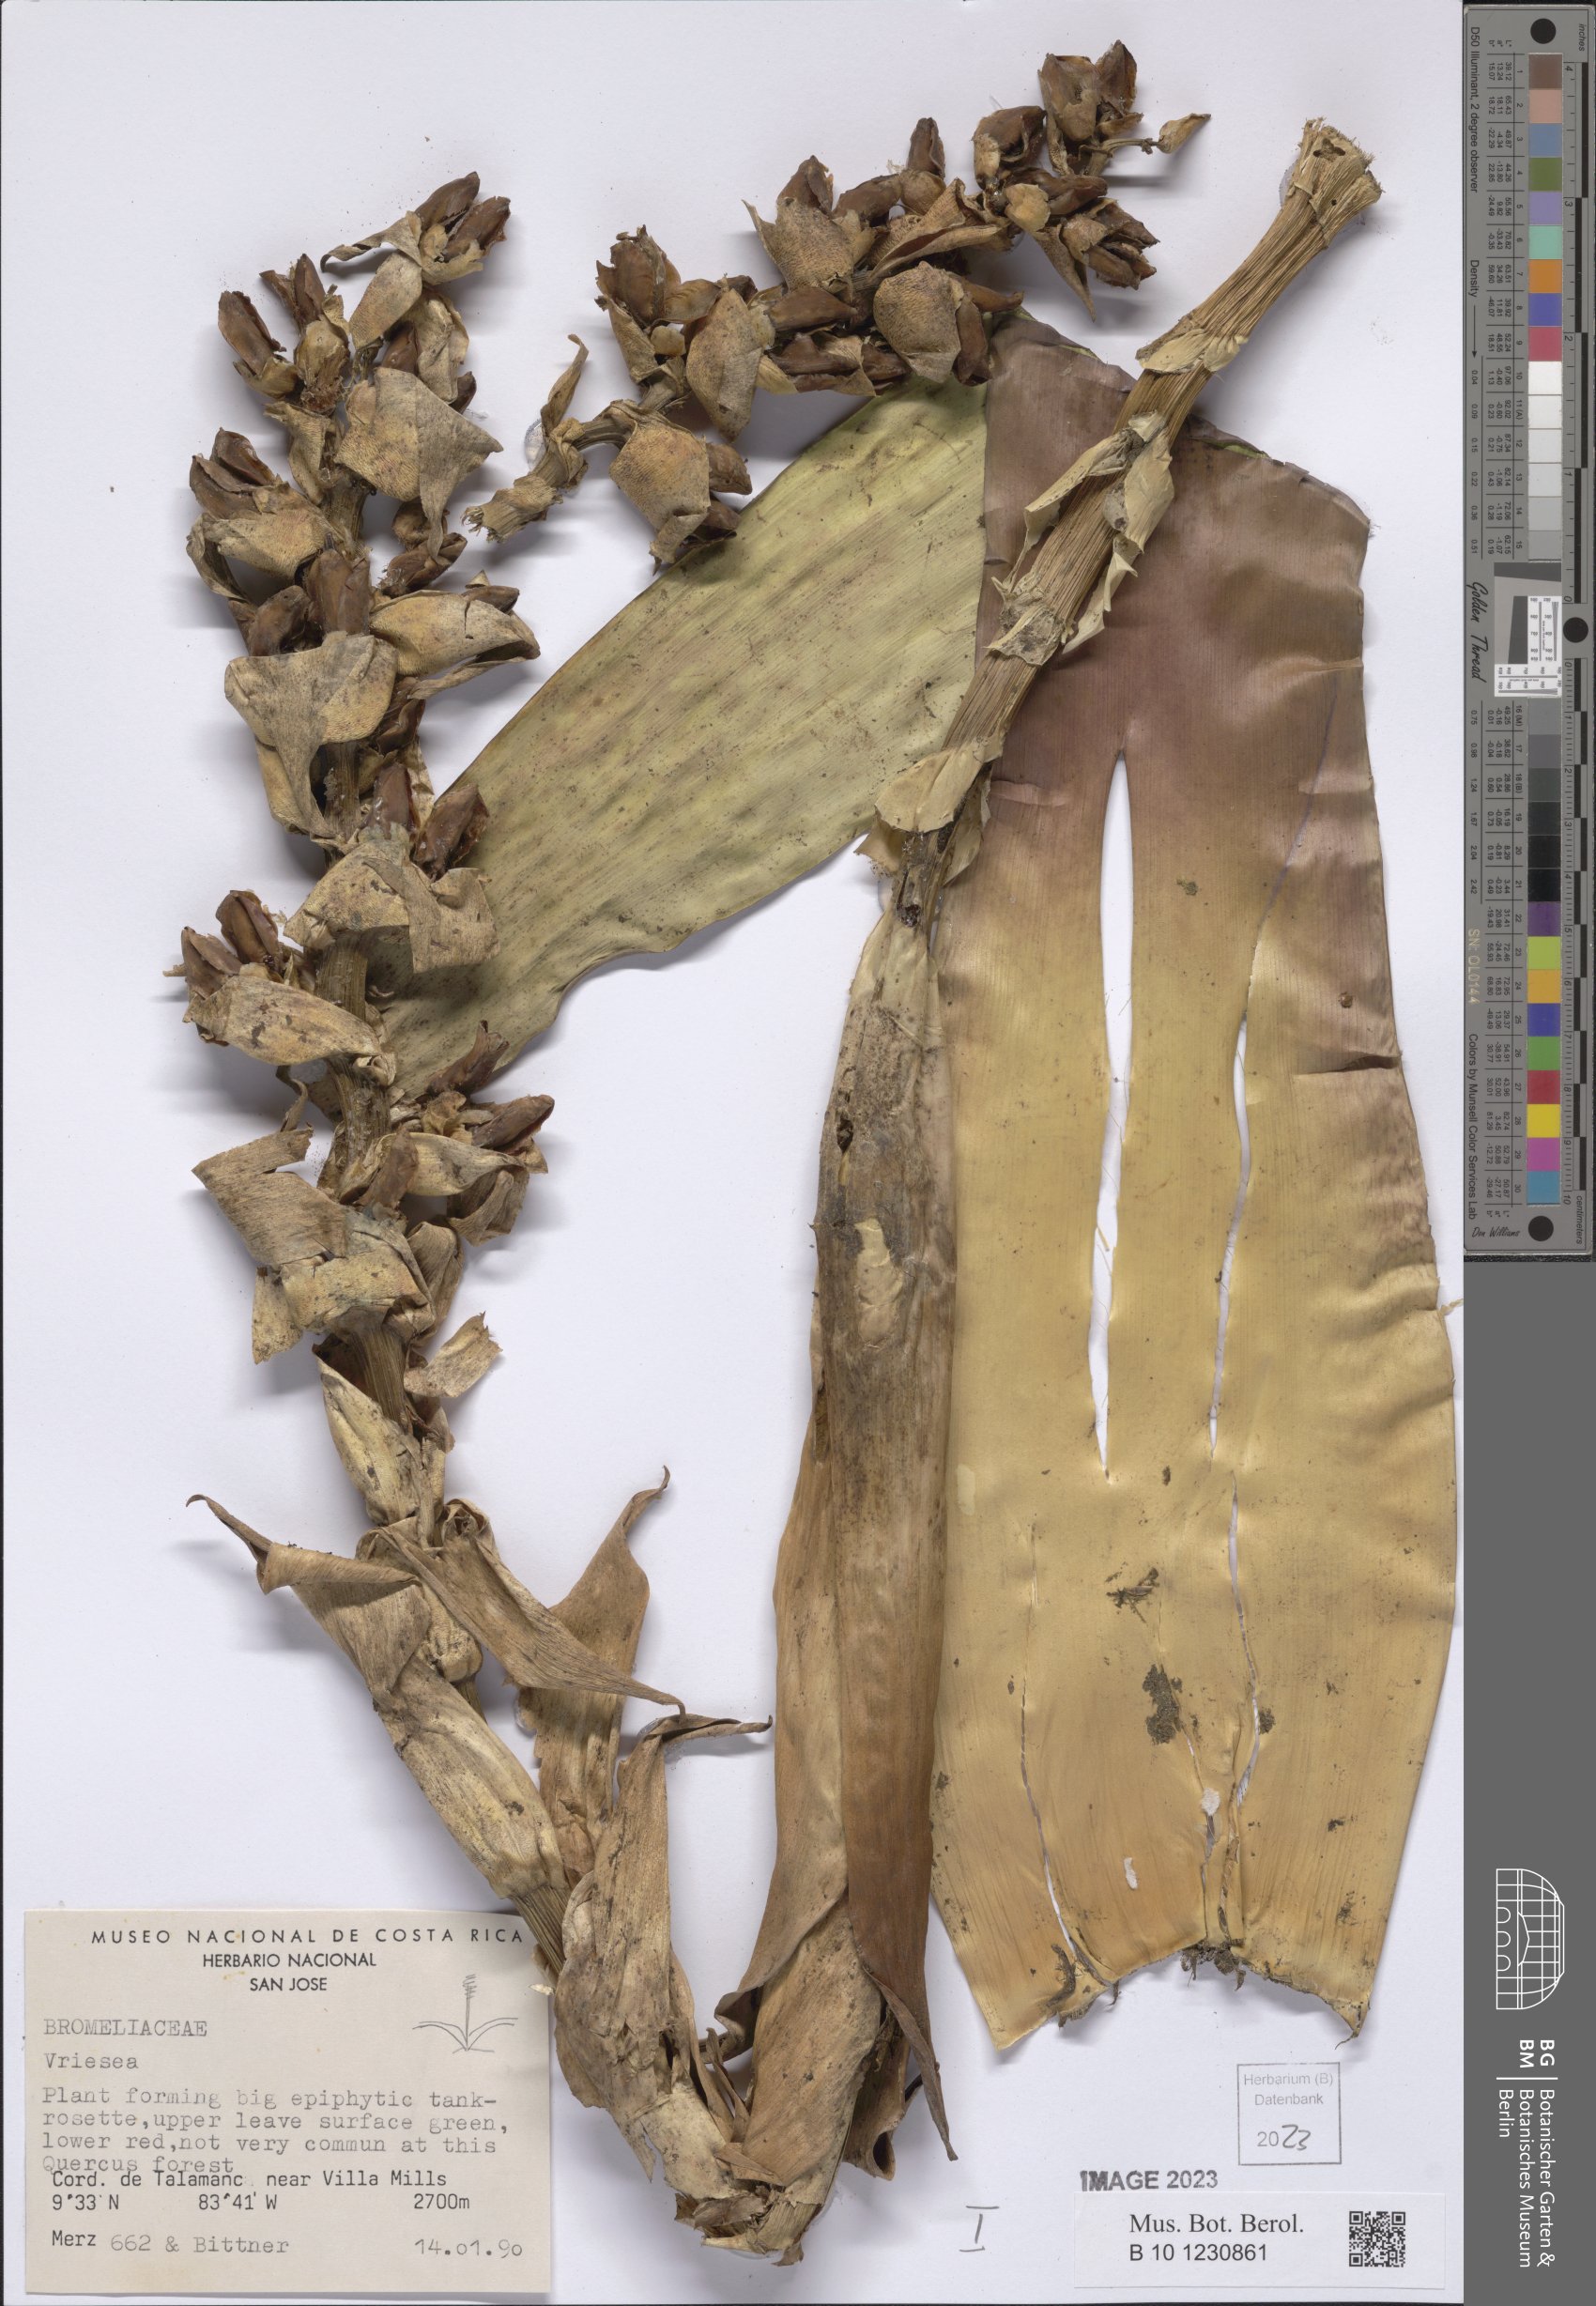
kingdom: Plantae
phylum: Tracheophyta
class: Liliopsida
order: Poales
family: Bromeliaceae
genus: Vriesea
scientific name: Vriesea
